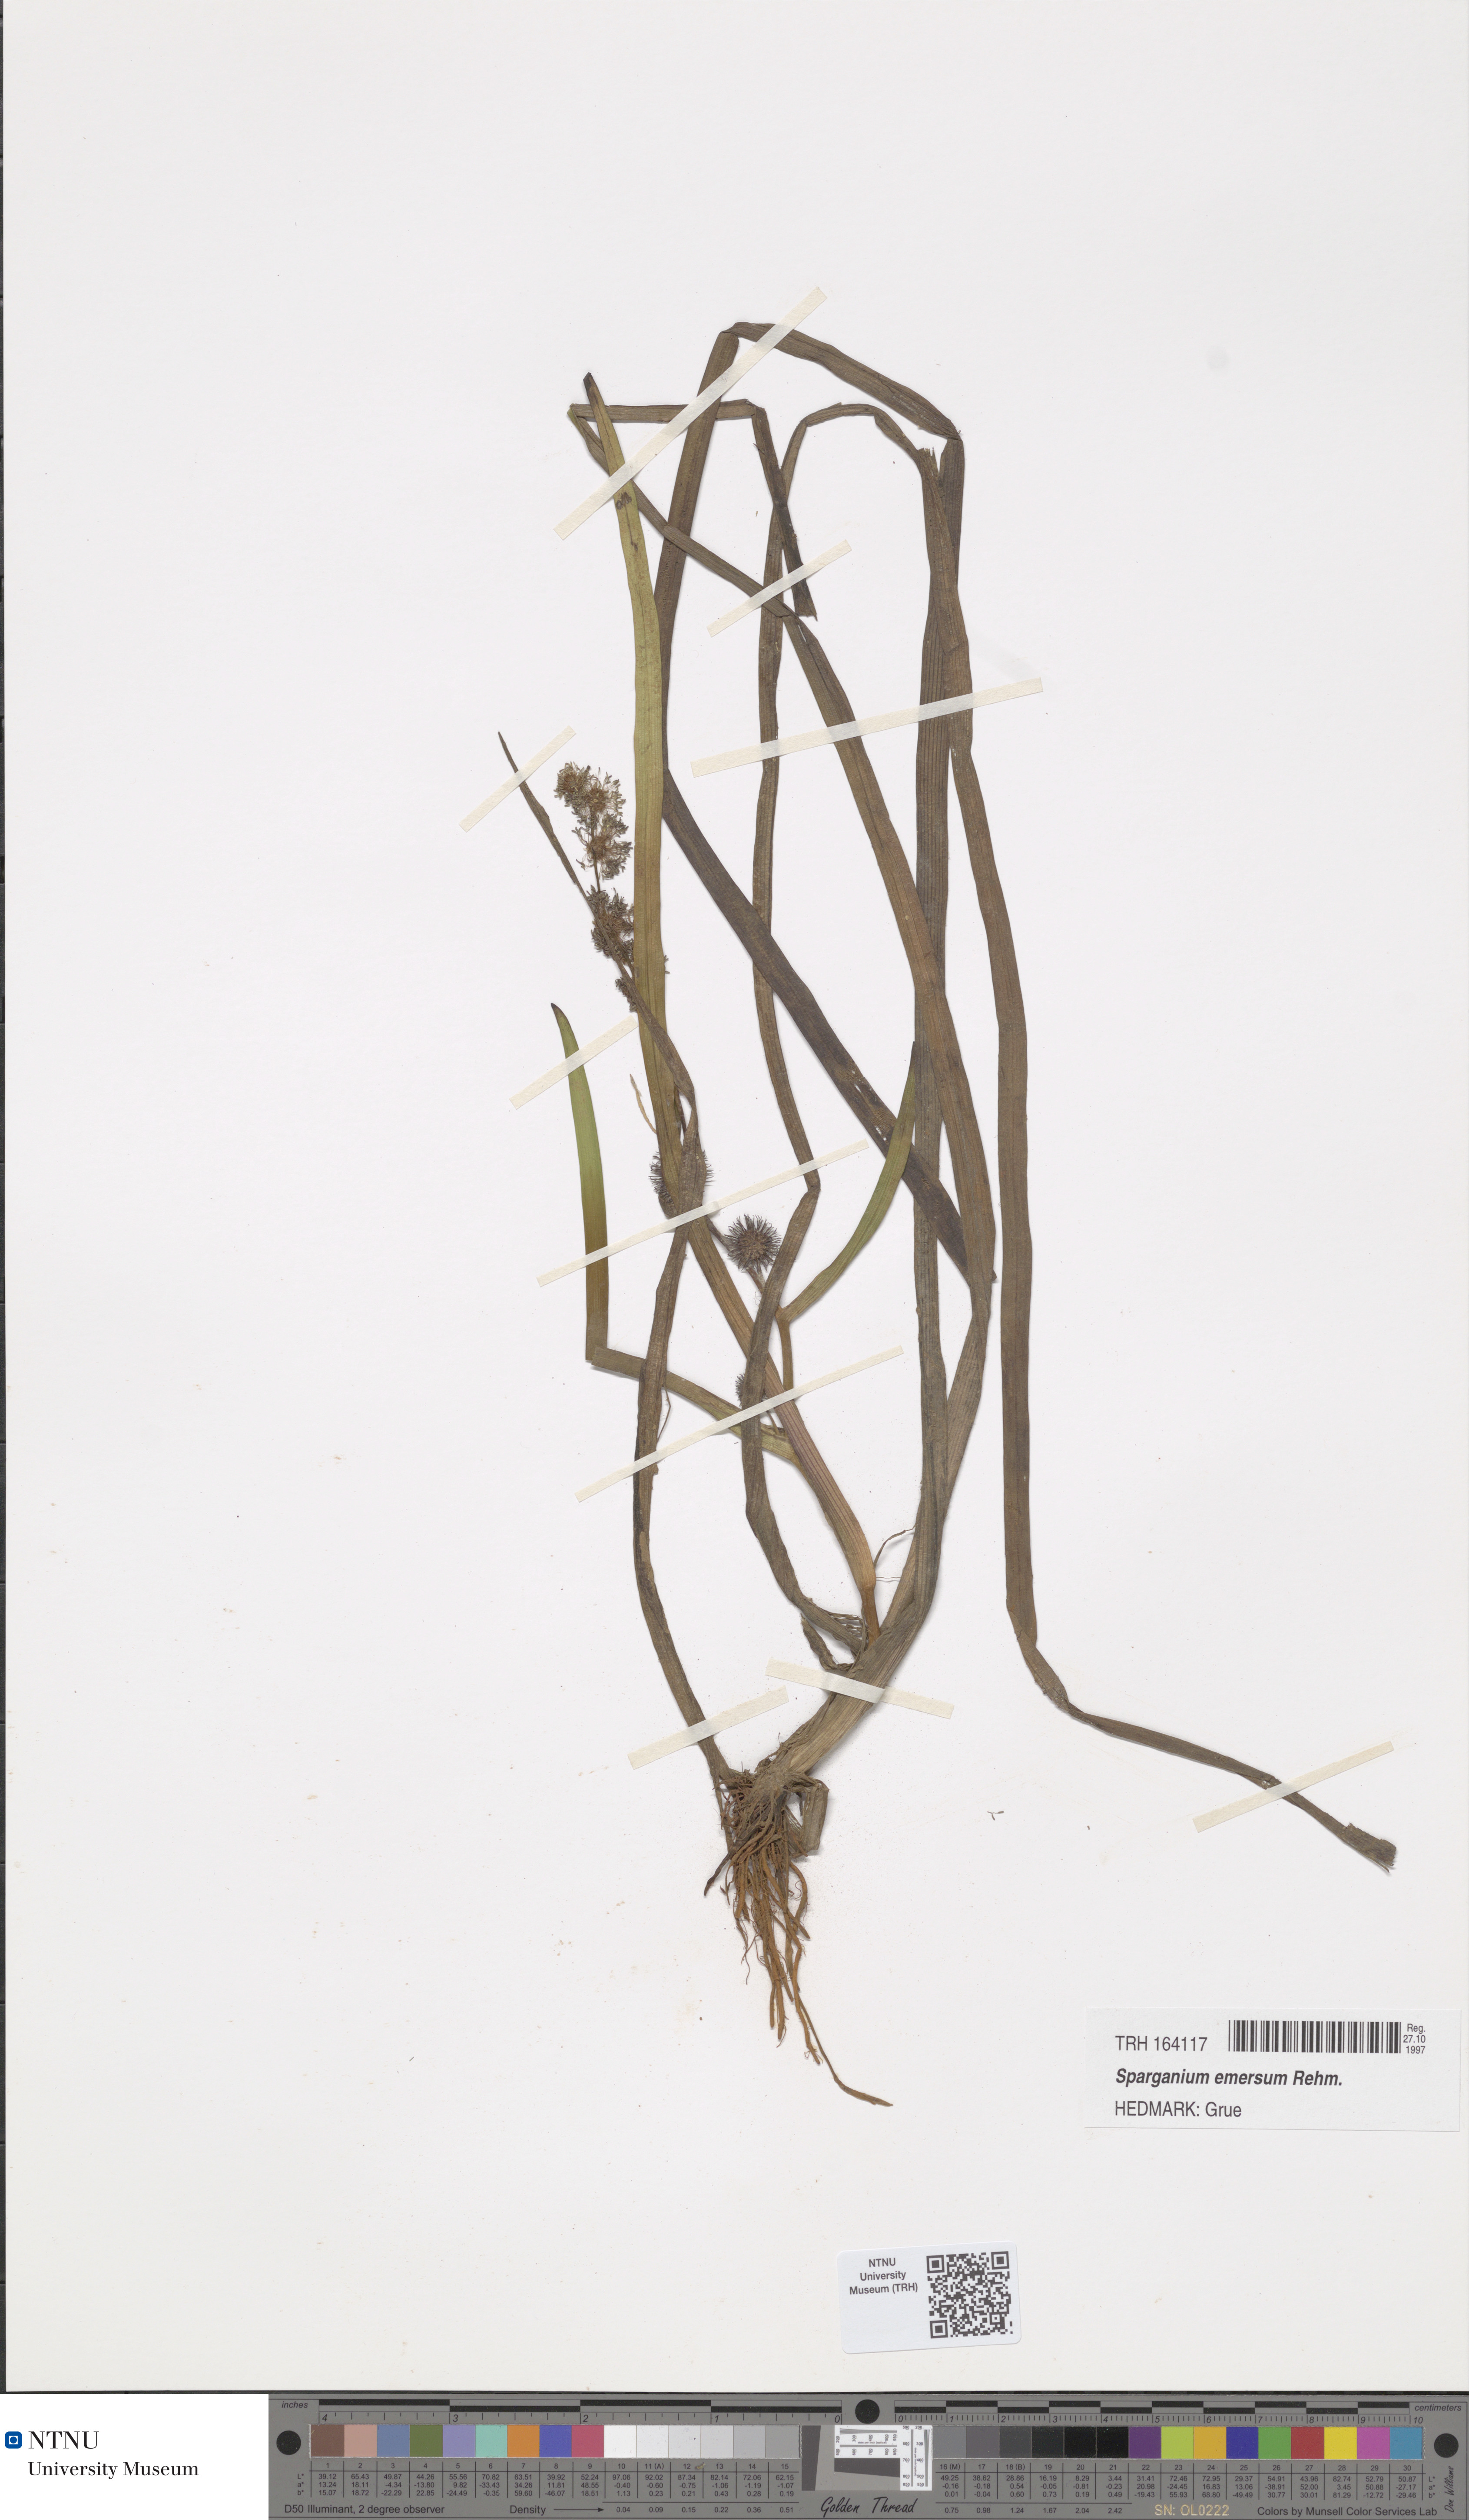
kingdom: Plantae
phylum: Tracheophyta
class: Liliopsida
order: Poales
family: Typhaceae
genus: Sparganium
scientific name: Sparganium emersum
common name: Unbranched bur-reed
